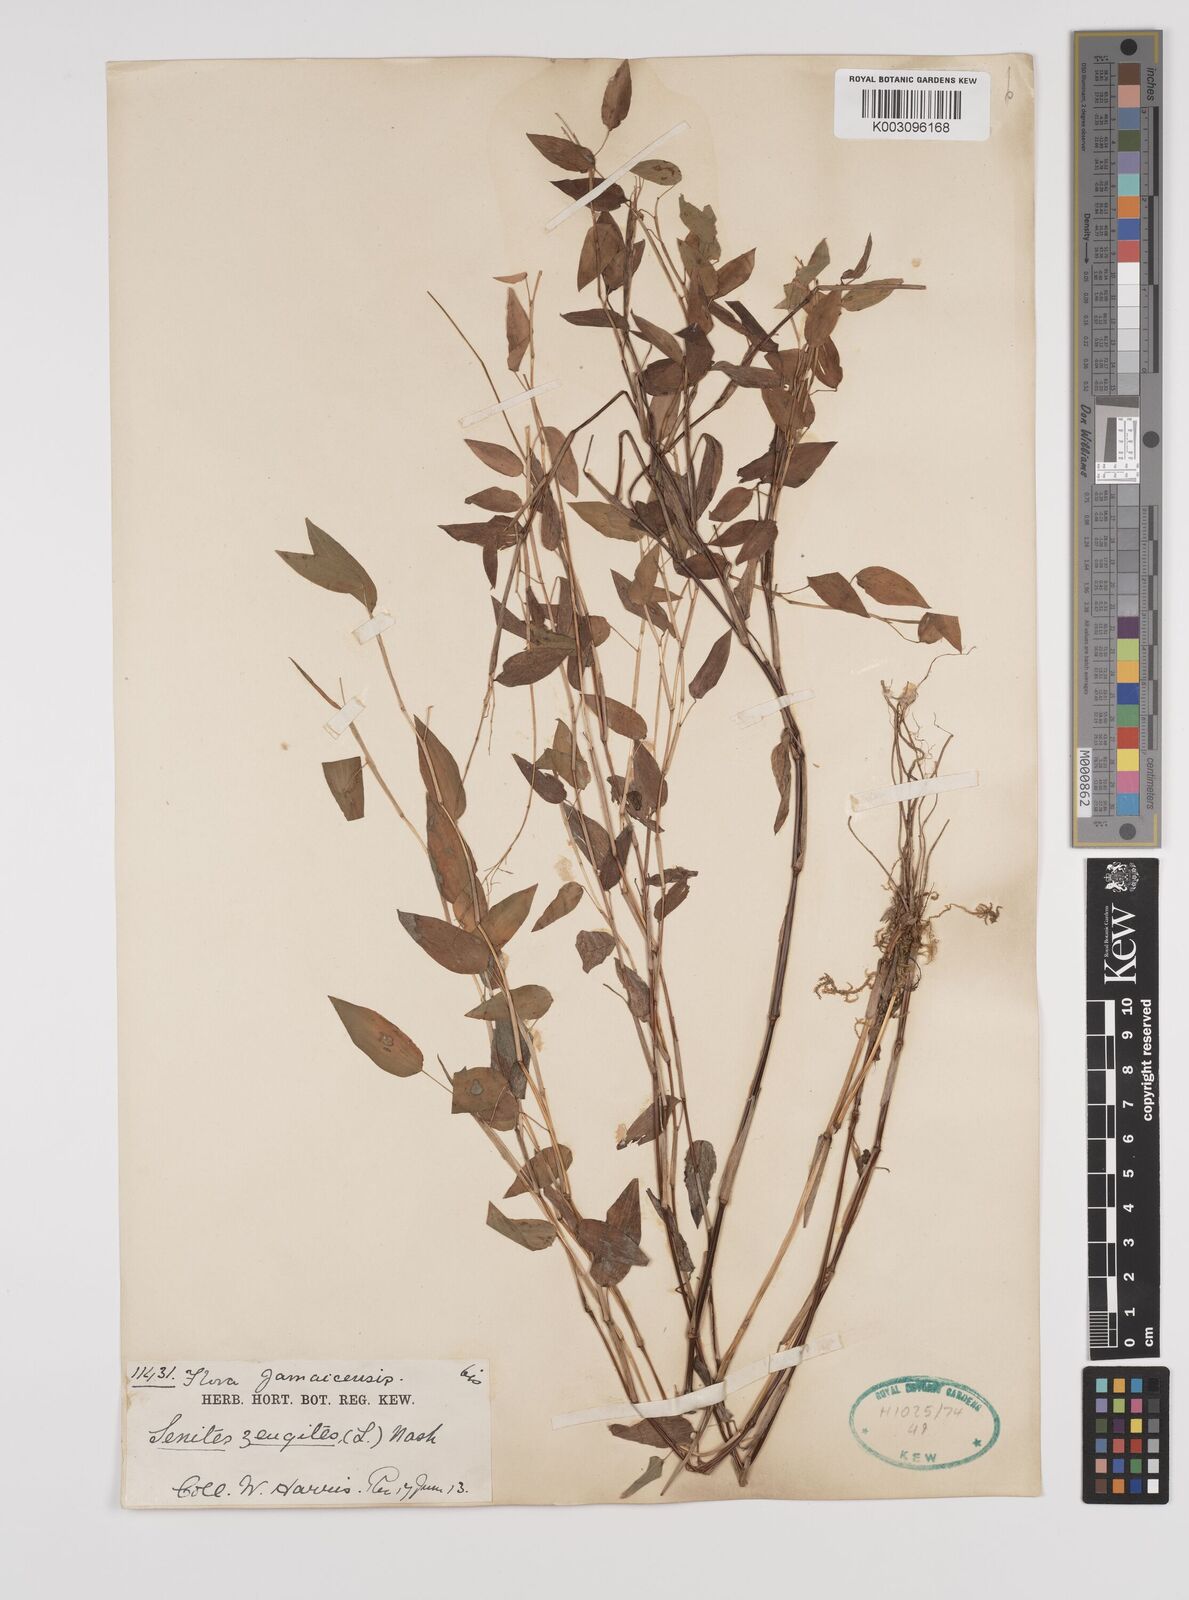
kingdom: Plantae
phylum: Tracheophyta
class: Liliopsida
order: Poales
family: Poaceae
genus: Zeugites
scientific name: Zeugites americanus
